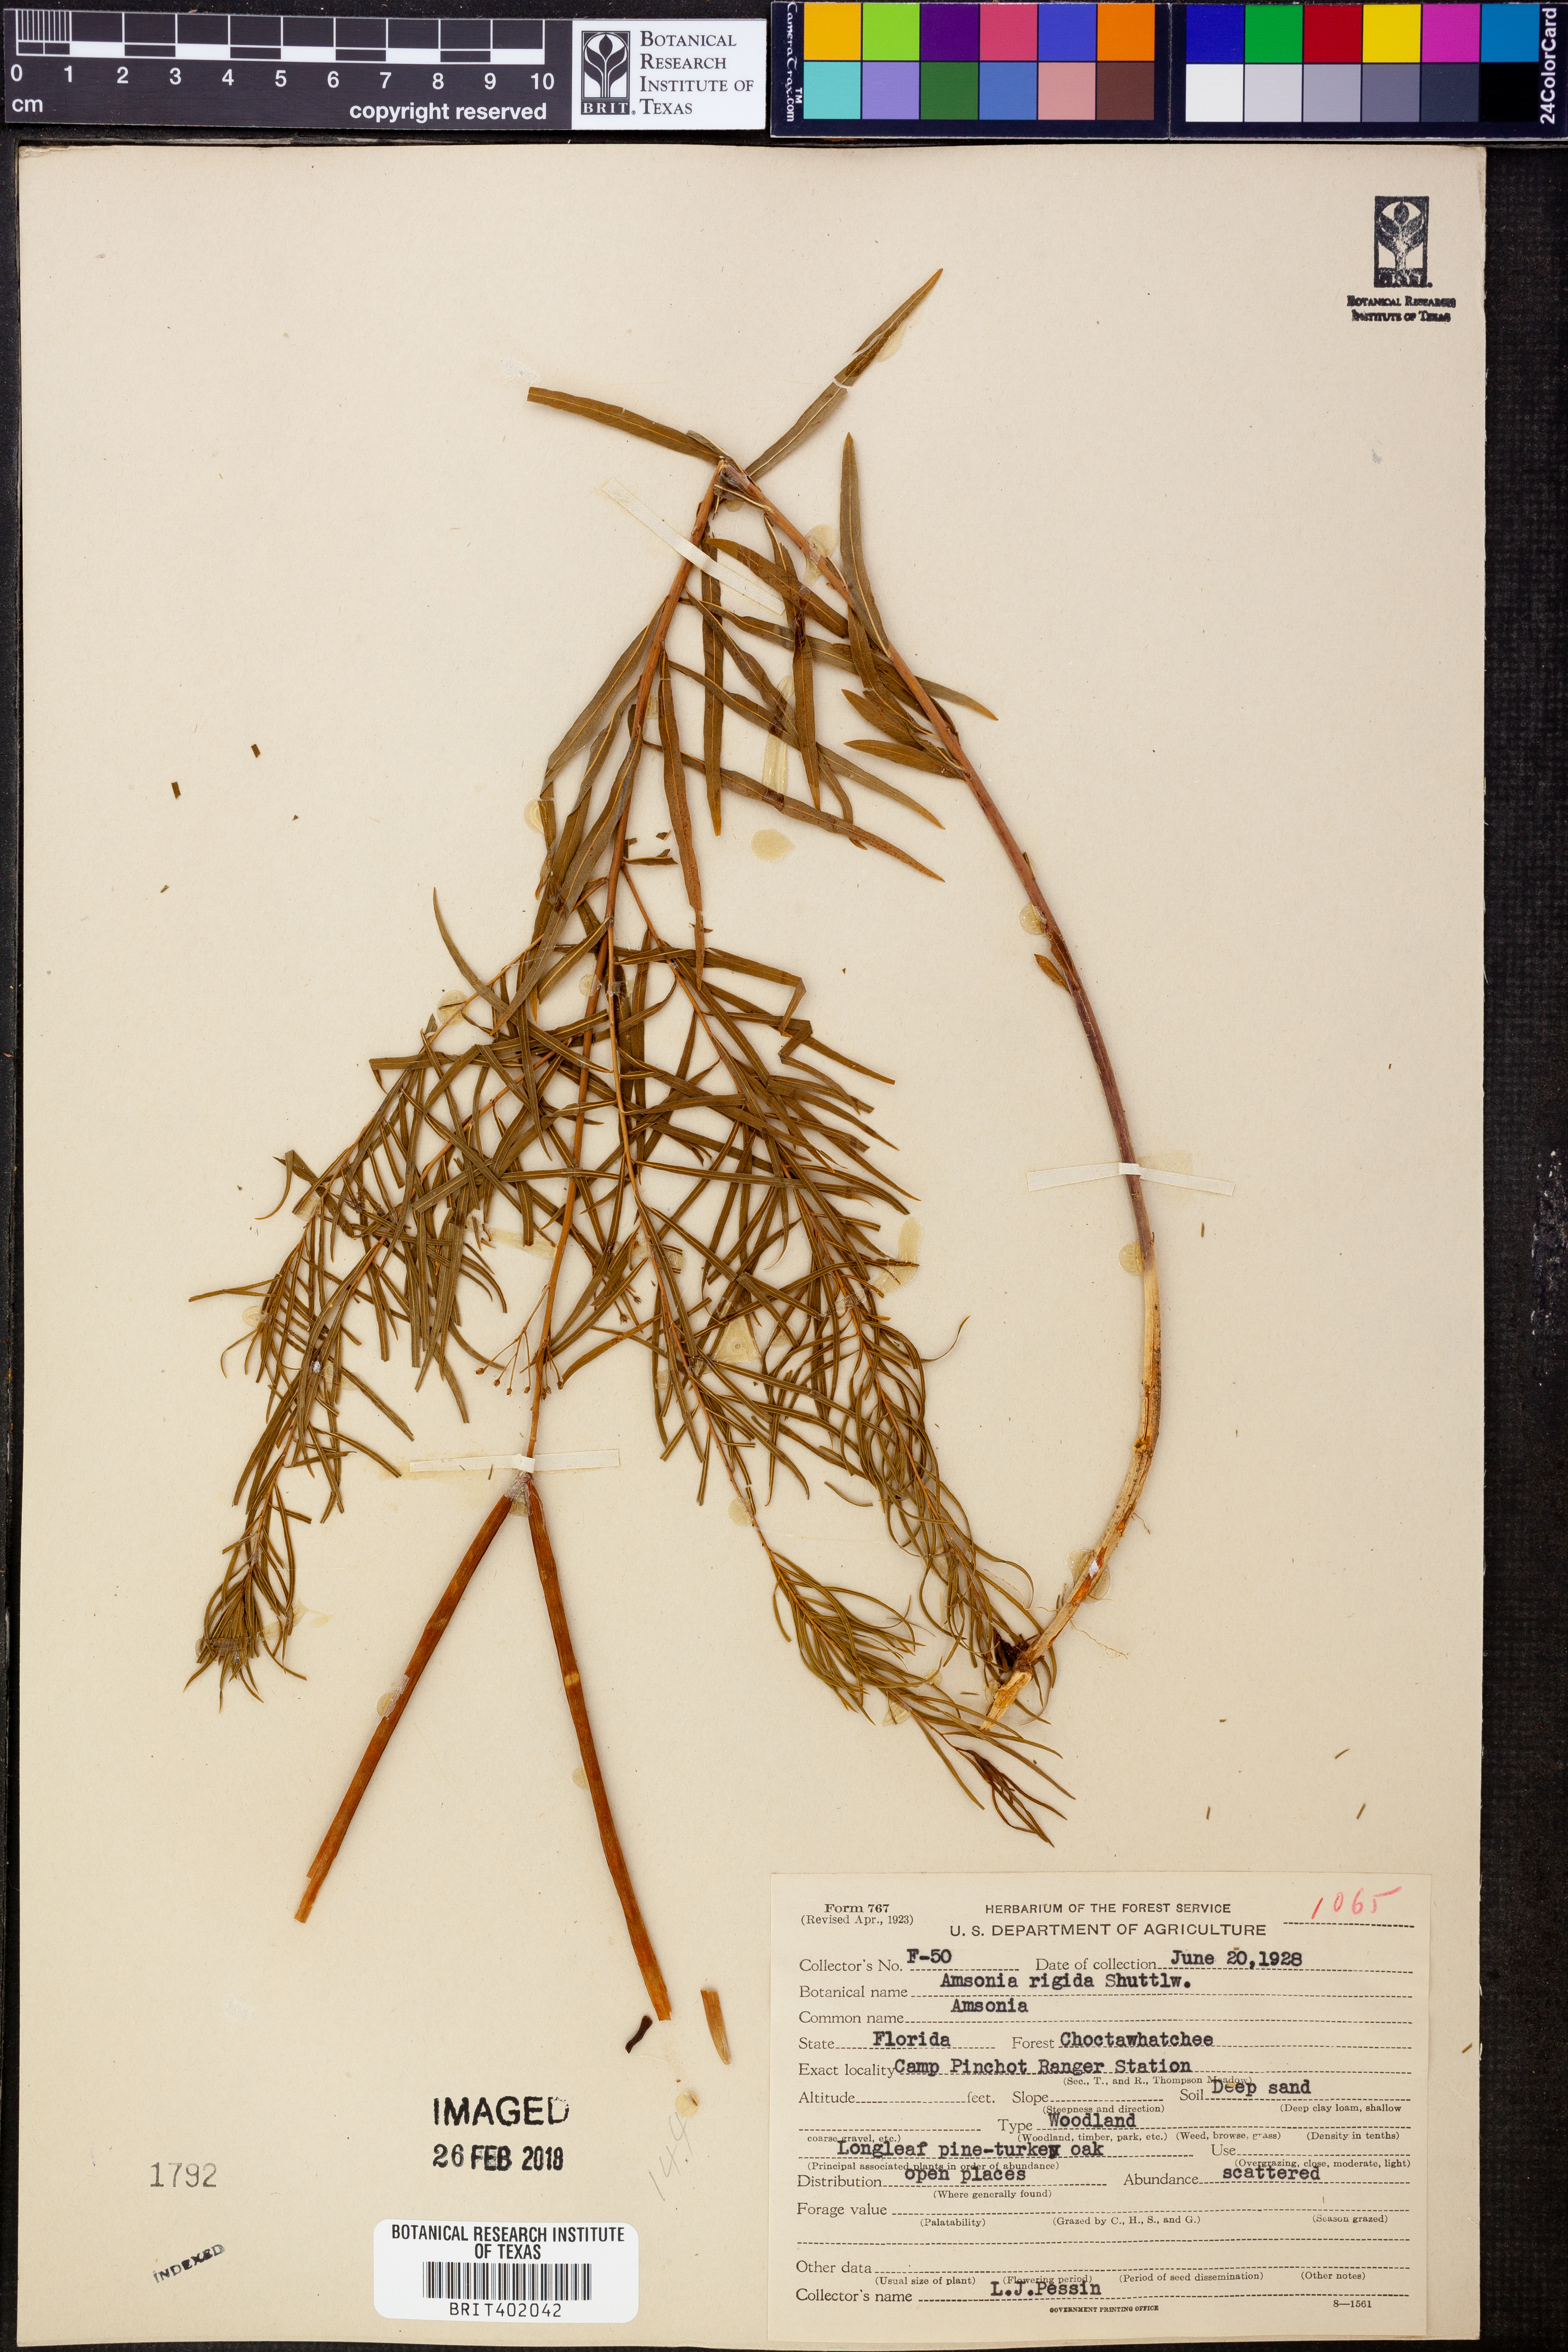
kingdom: Plantae
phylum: Tracheophyta
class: Magnoliopsida
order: Gentianales
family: Apocynaceae
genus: Amsonia
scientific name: Amsonia rigida
